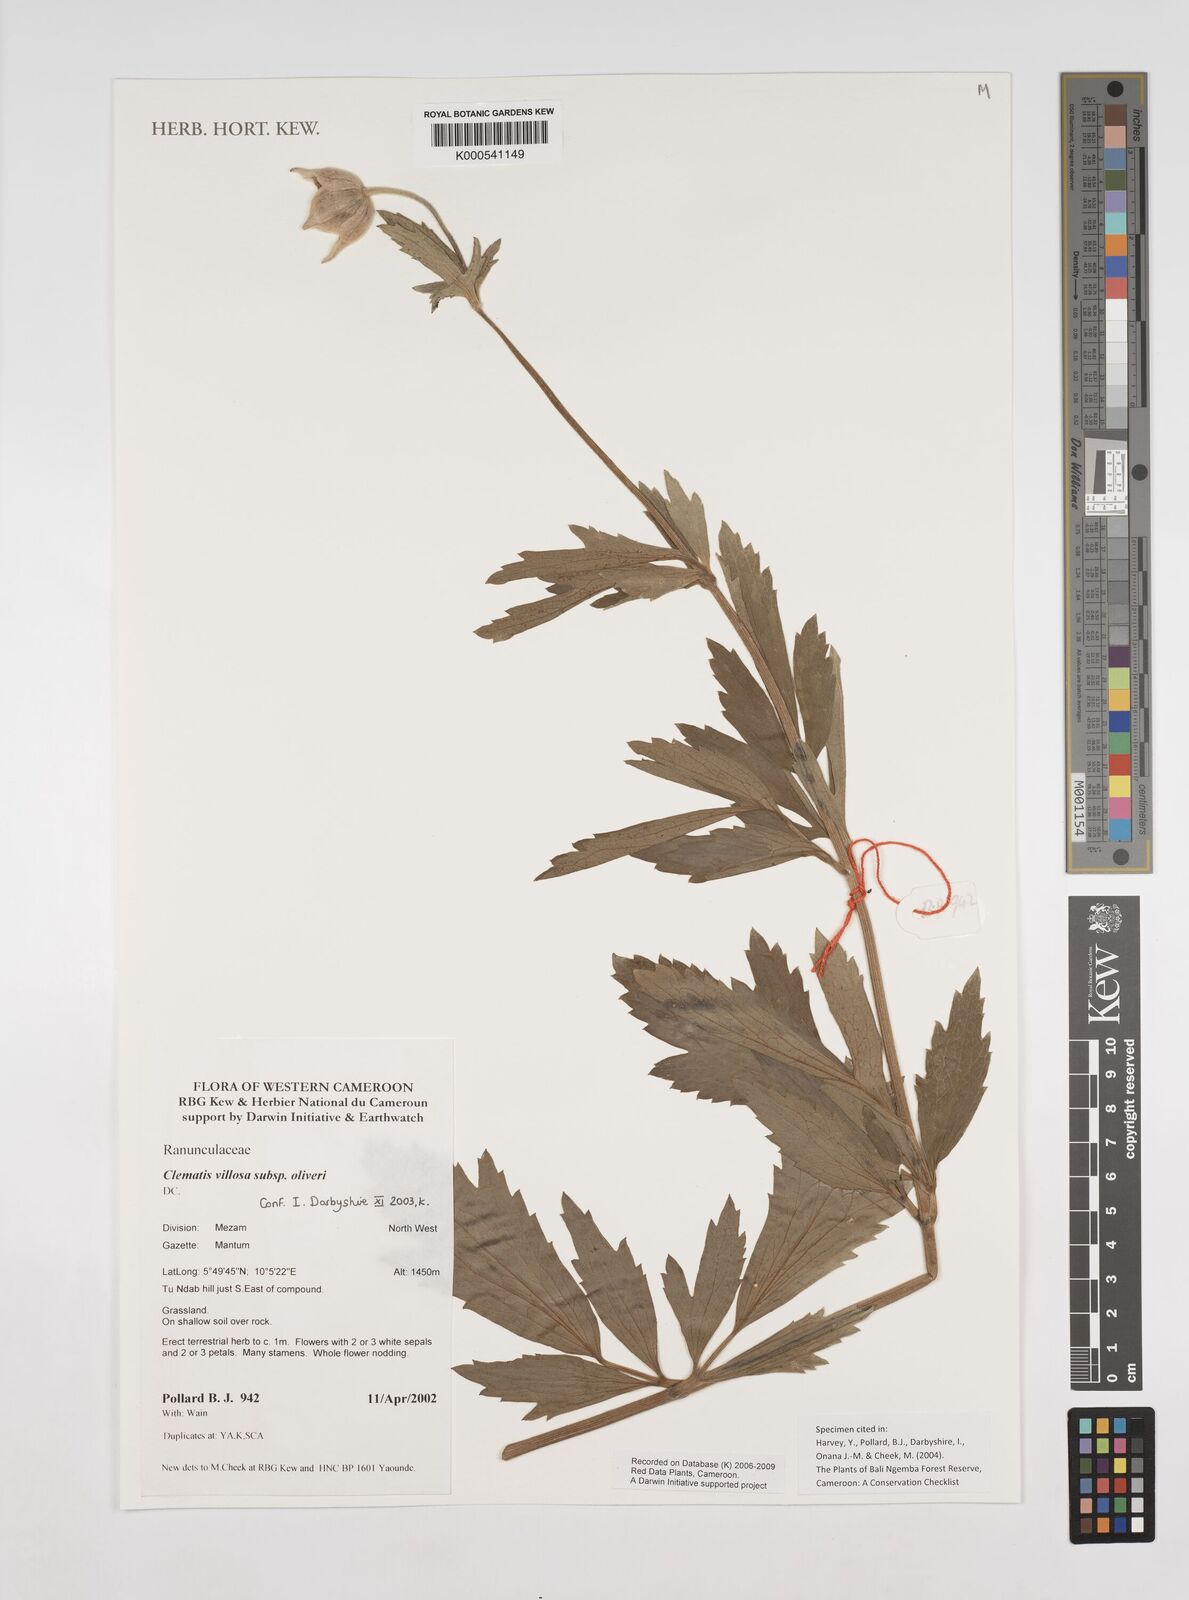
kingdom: Plantae
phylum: Tracheophyta
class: Magnoliopsida
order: Ranunculales
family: Ranunculaceae
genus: Clematis
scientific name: Clematis villosa
